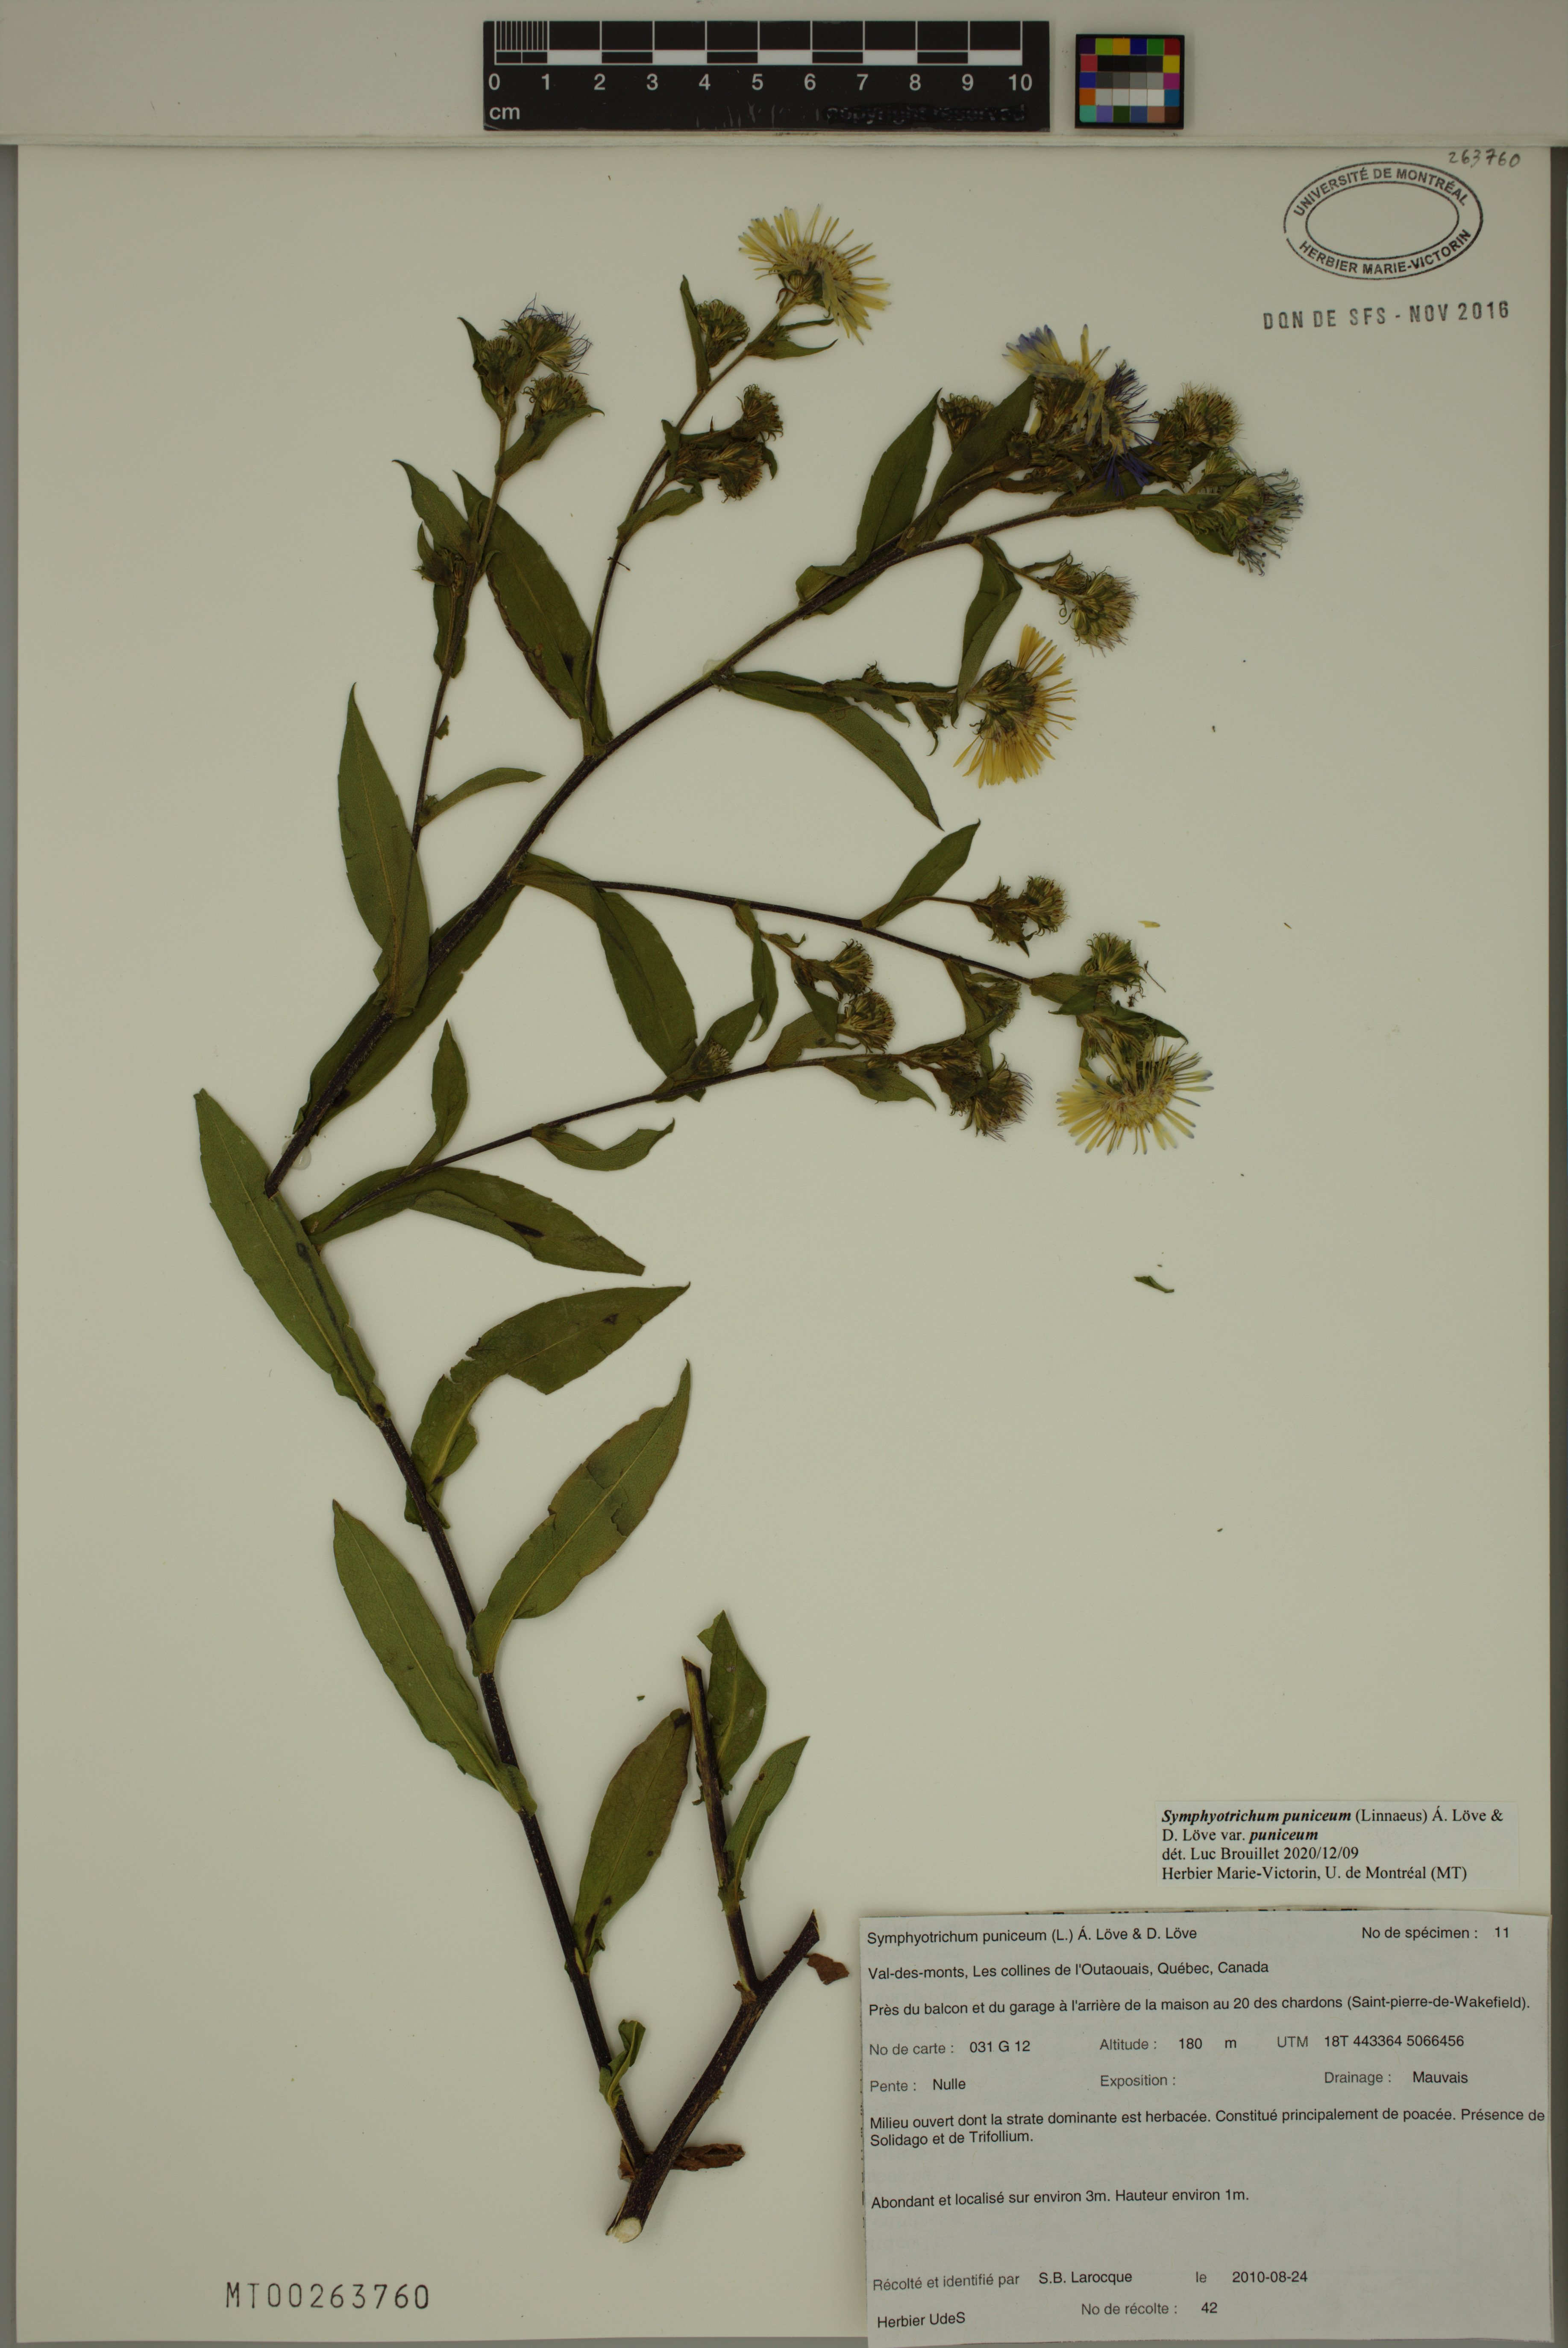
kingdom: Plantae
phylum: Tracheophyta
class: Magnoliopsida
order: Asterales
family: Asteraceae
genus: Symphyotrichum
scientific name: Symphyotrichum puniceum
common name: Bog aster
